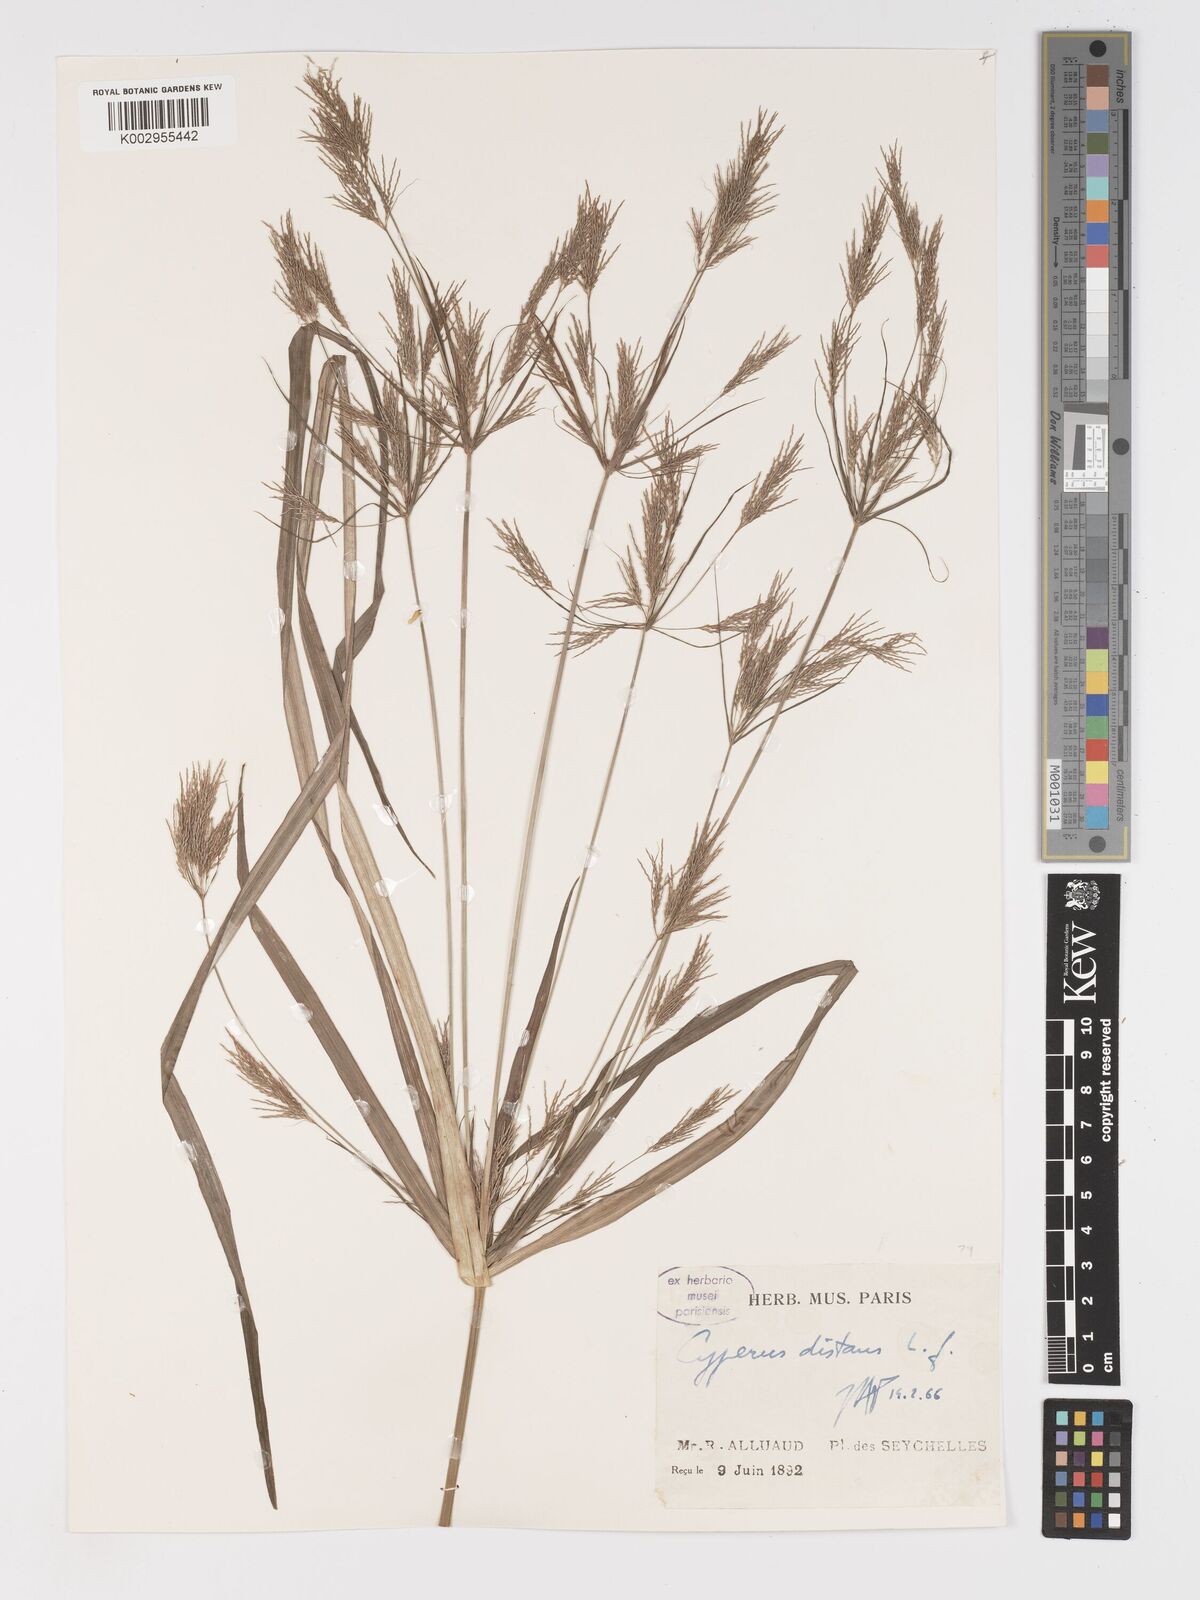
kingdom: Plantae
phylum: Tracheophyta
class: Liliopsida
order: Poales
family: Cyperaceae
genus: Cyperus
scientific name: Cyperus distans
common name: Slender cyperus
